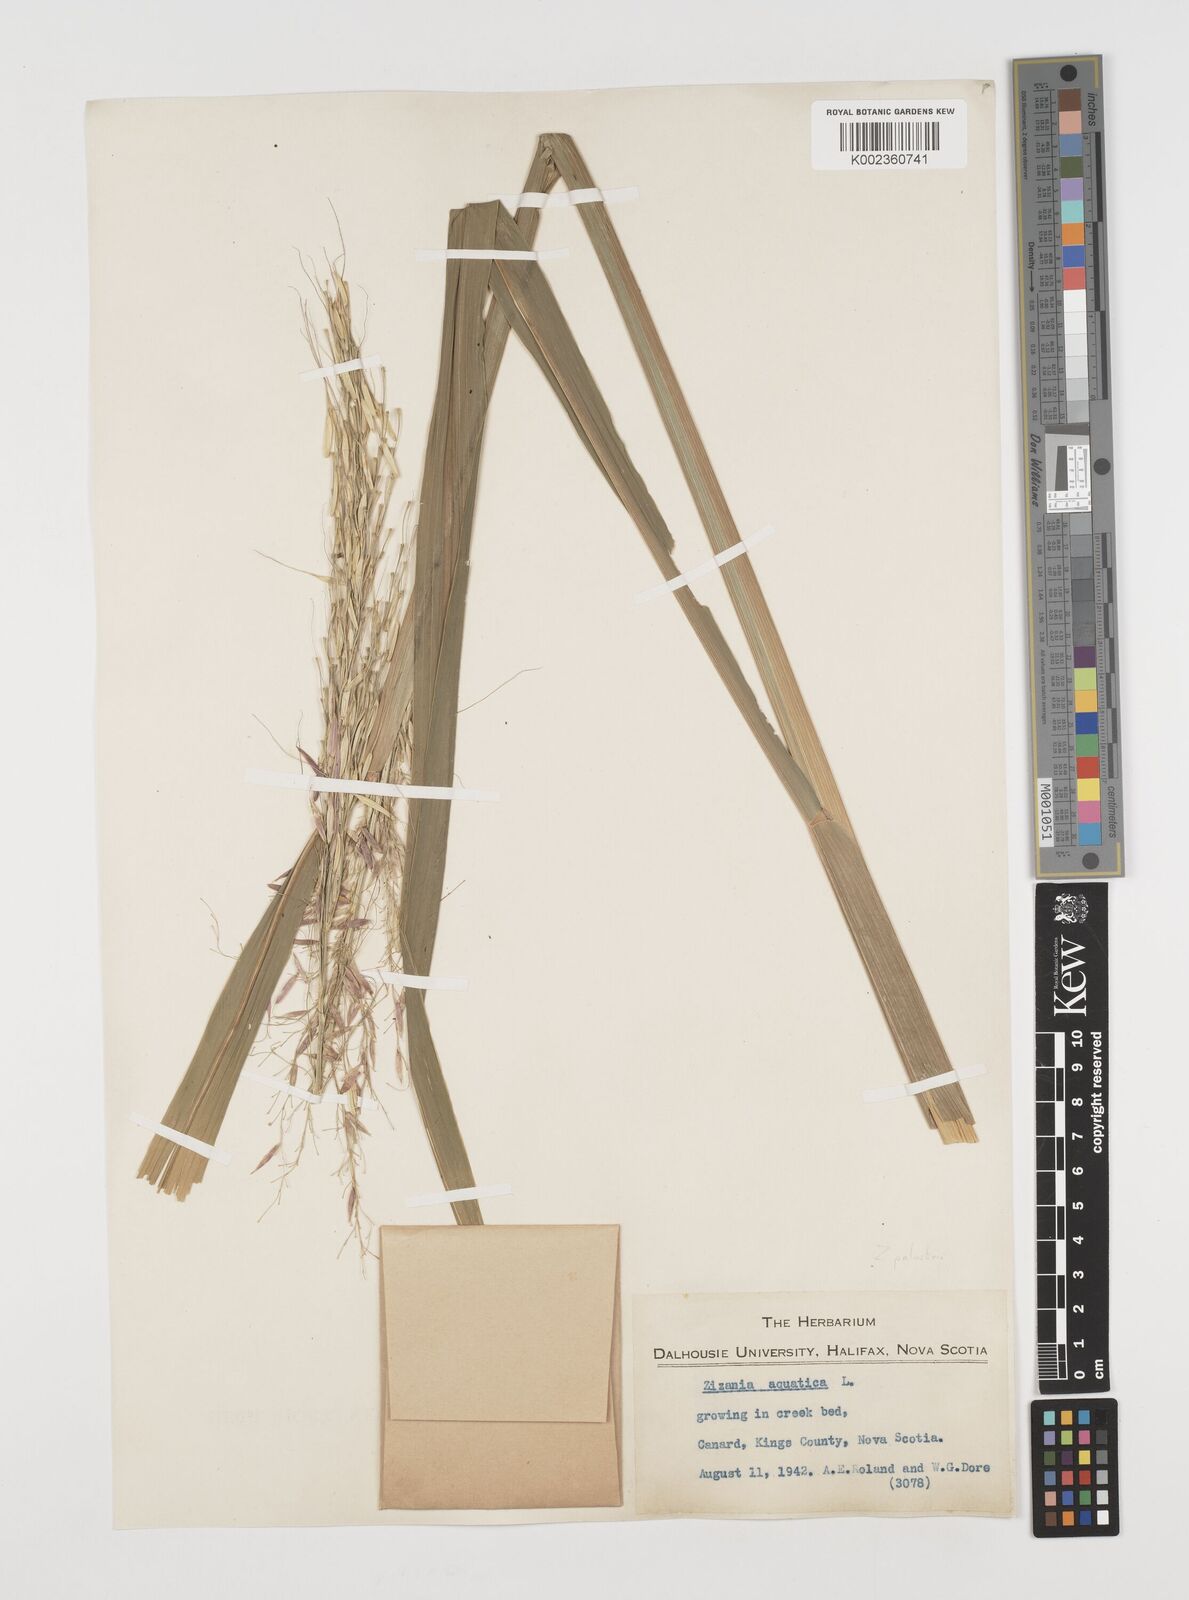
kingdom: Plantae
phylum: Tracheophyta
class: Liliopsida
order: Poales
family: Poaceae
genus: Zizania
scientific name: Zizania aquatica
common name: Annual wildrice
